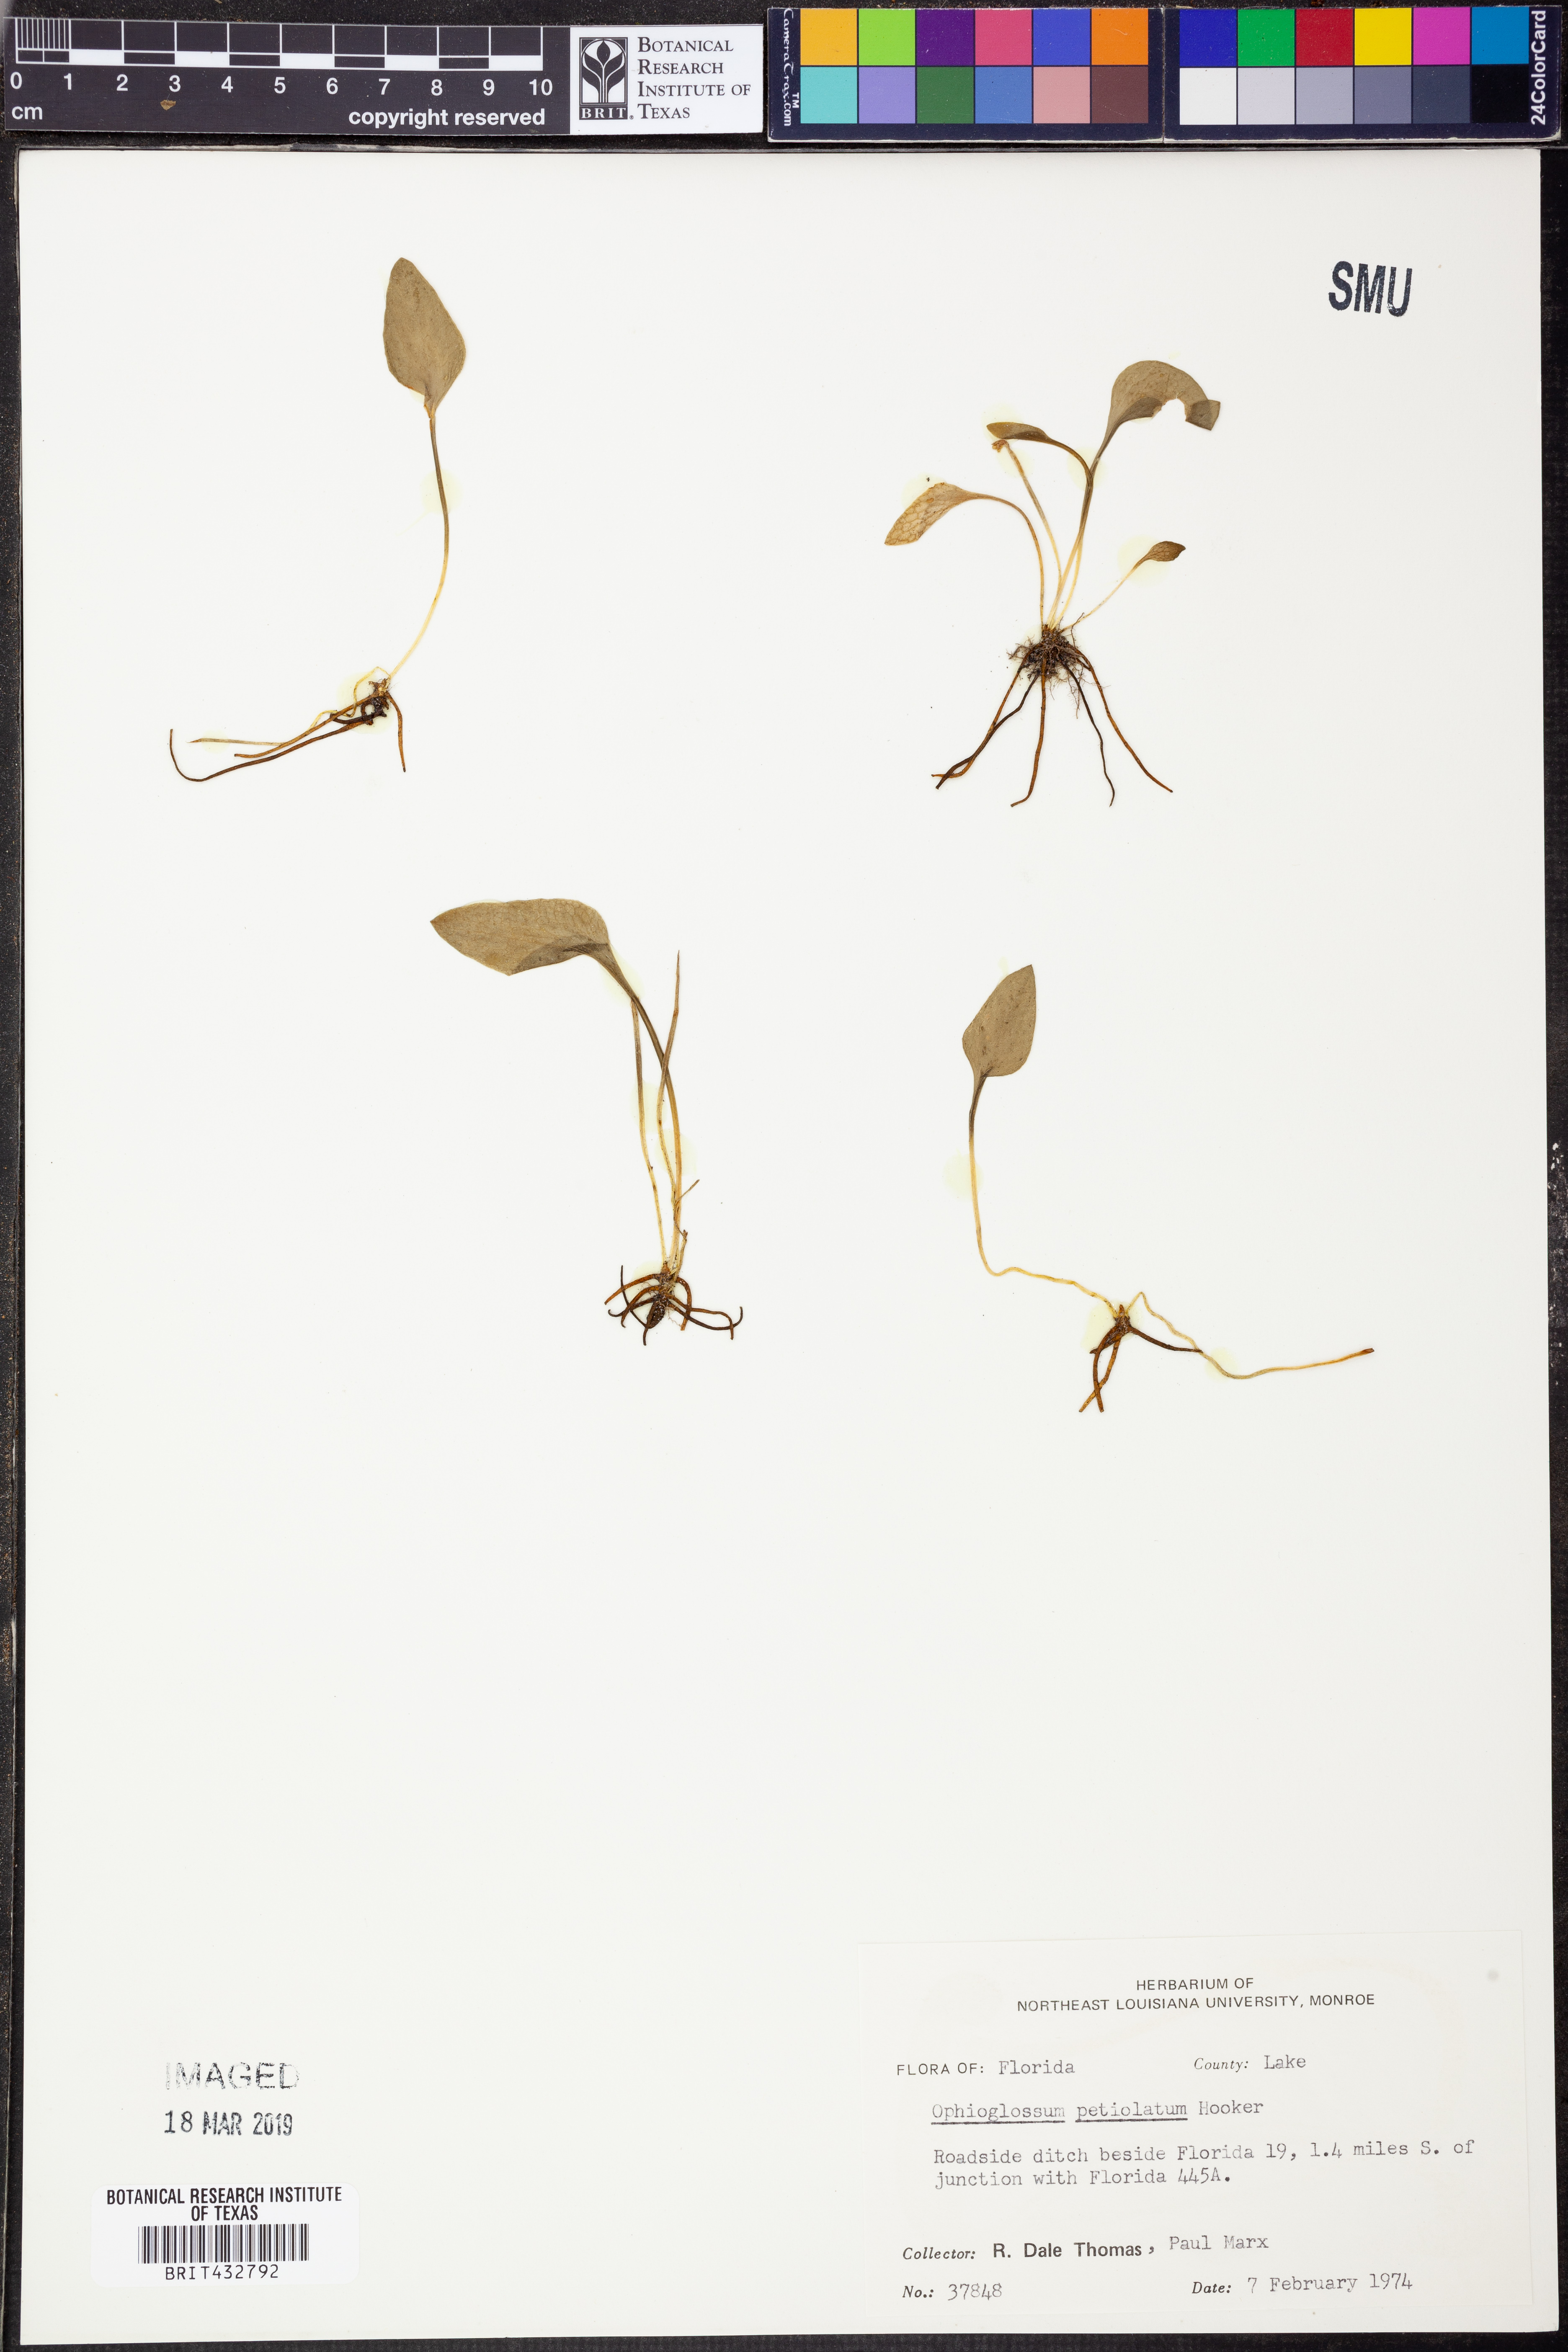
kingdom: Plantae
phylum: Tracheophyta
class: Polypodiopsida
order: Ophioglossales
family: Ophioglossaceae
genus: Ophioglossum
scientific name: Ophioglossum petiolatum
